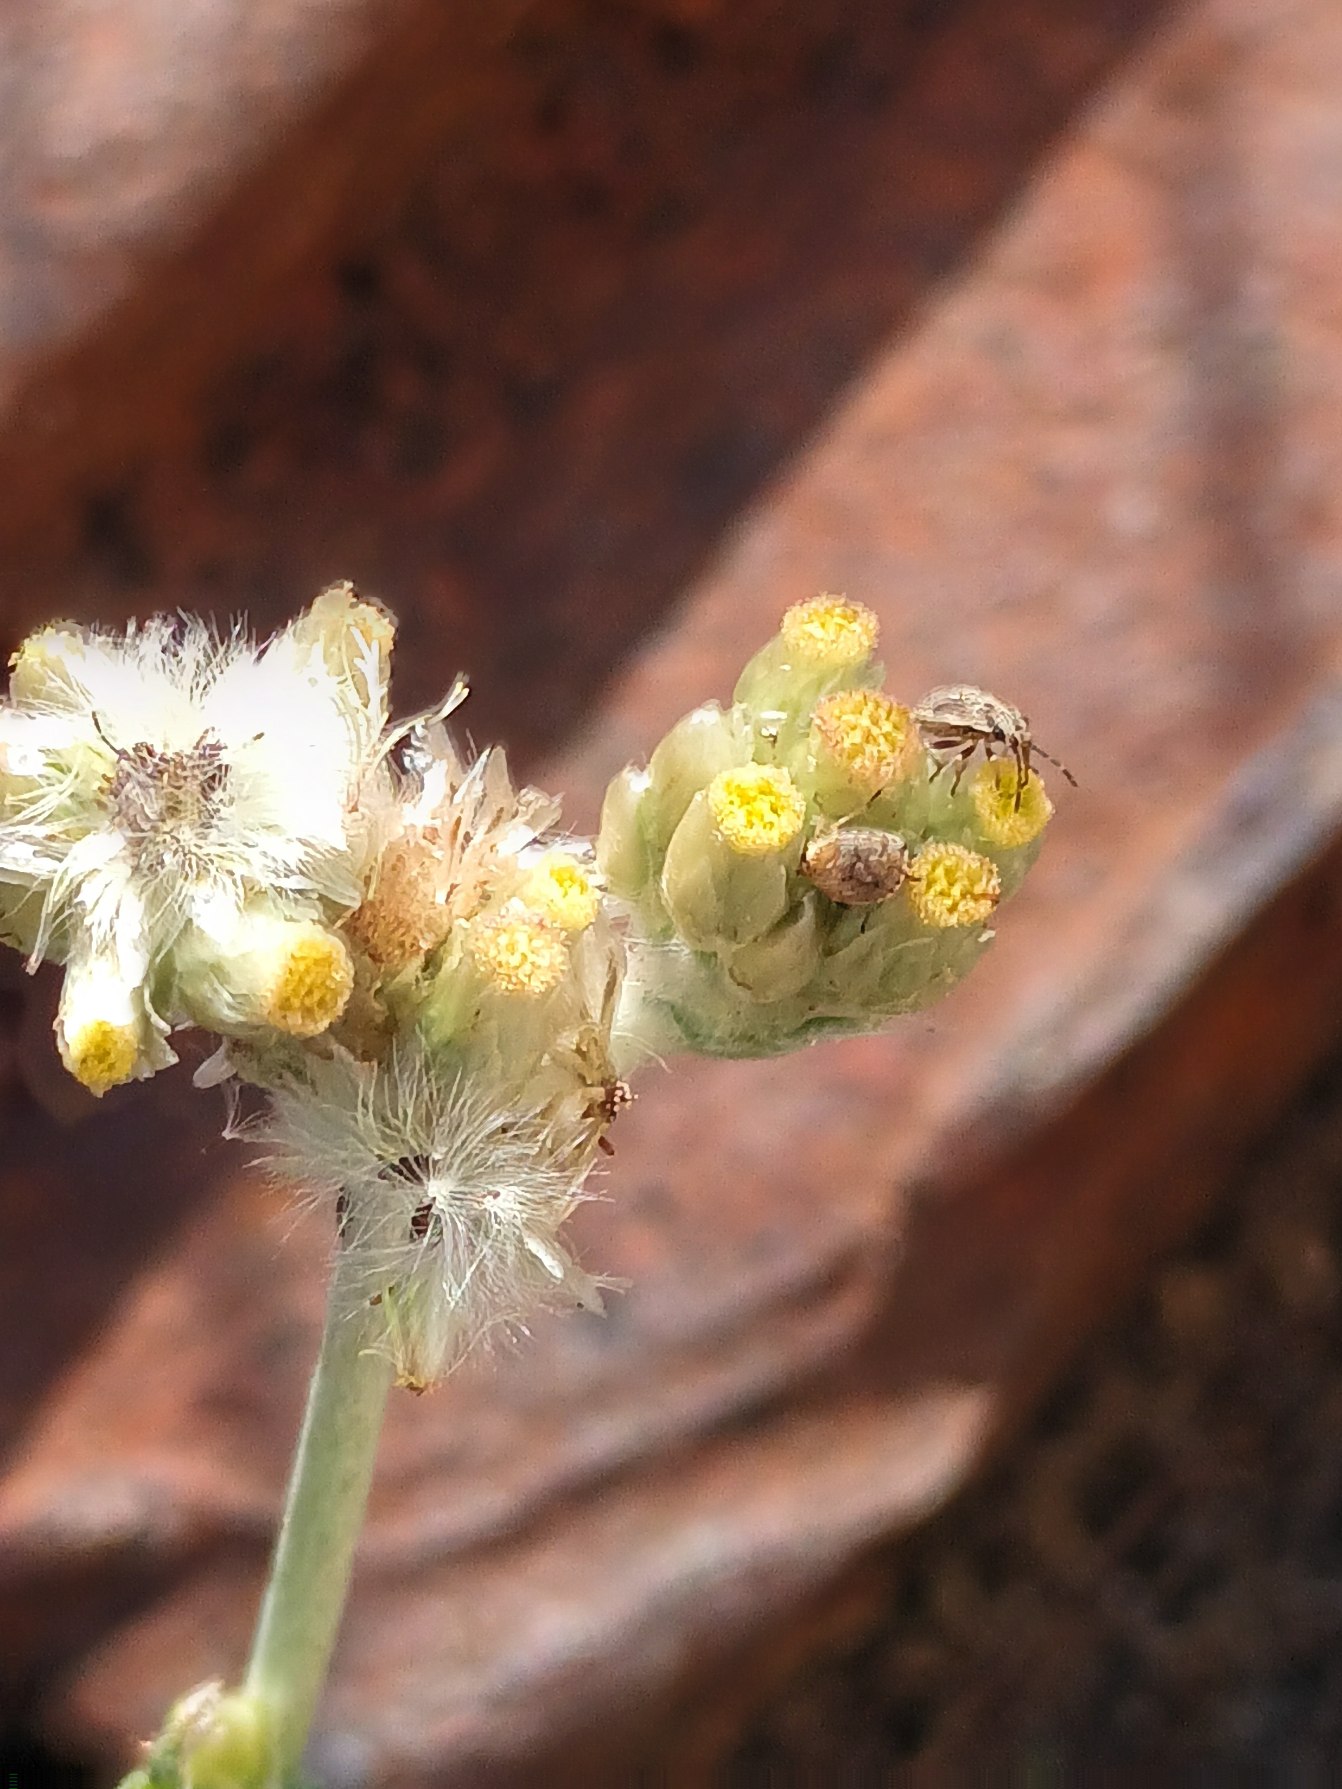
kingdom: Plantae
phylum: Tracheophyta
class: Magnoliopsida
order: Asterales
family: Asteraceae
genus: Helichrysum
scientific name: Helichrysum luteoalbum
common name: Gulhvid evighedsblomst
